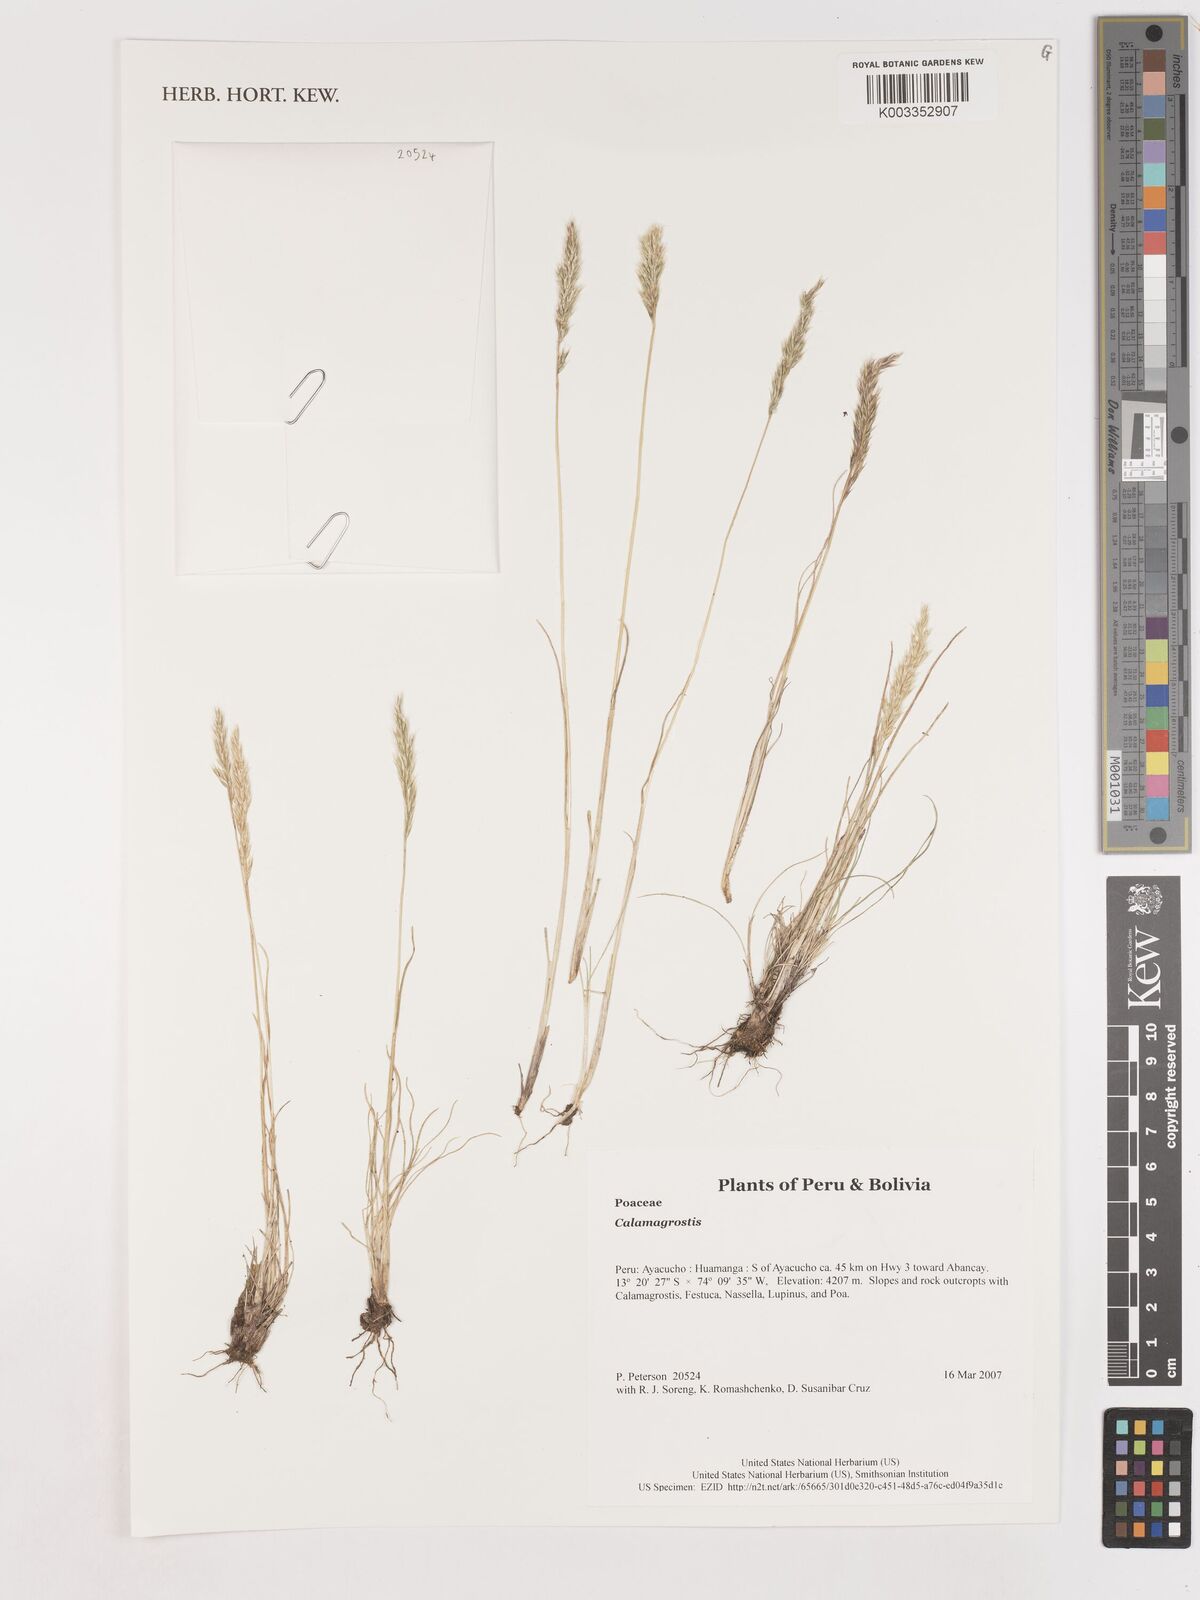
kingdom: Plantae
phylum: Tracheophyta
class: Liliopsida
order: Poales
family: Poaceae
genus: Calamagrostis
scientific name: Calamagrostis
